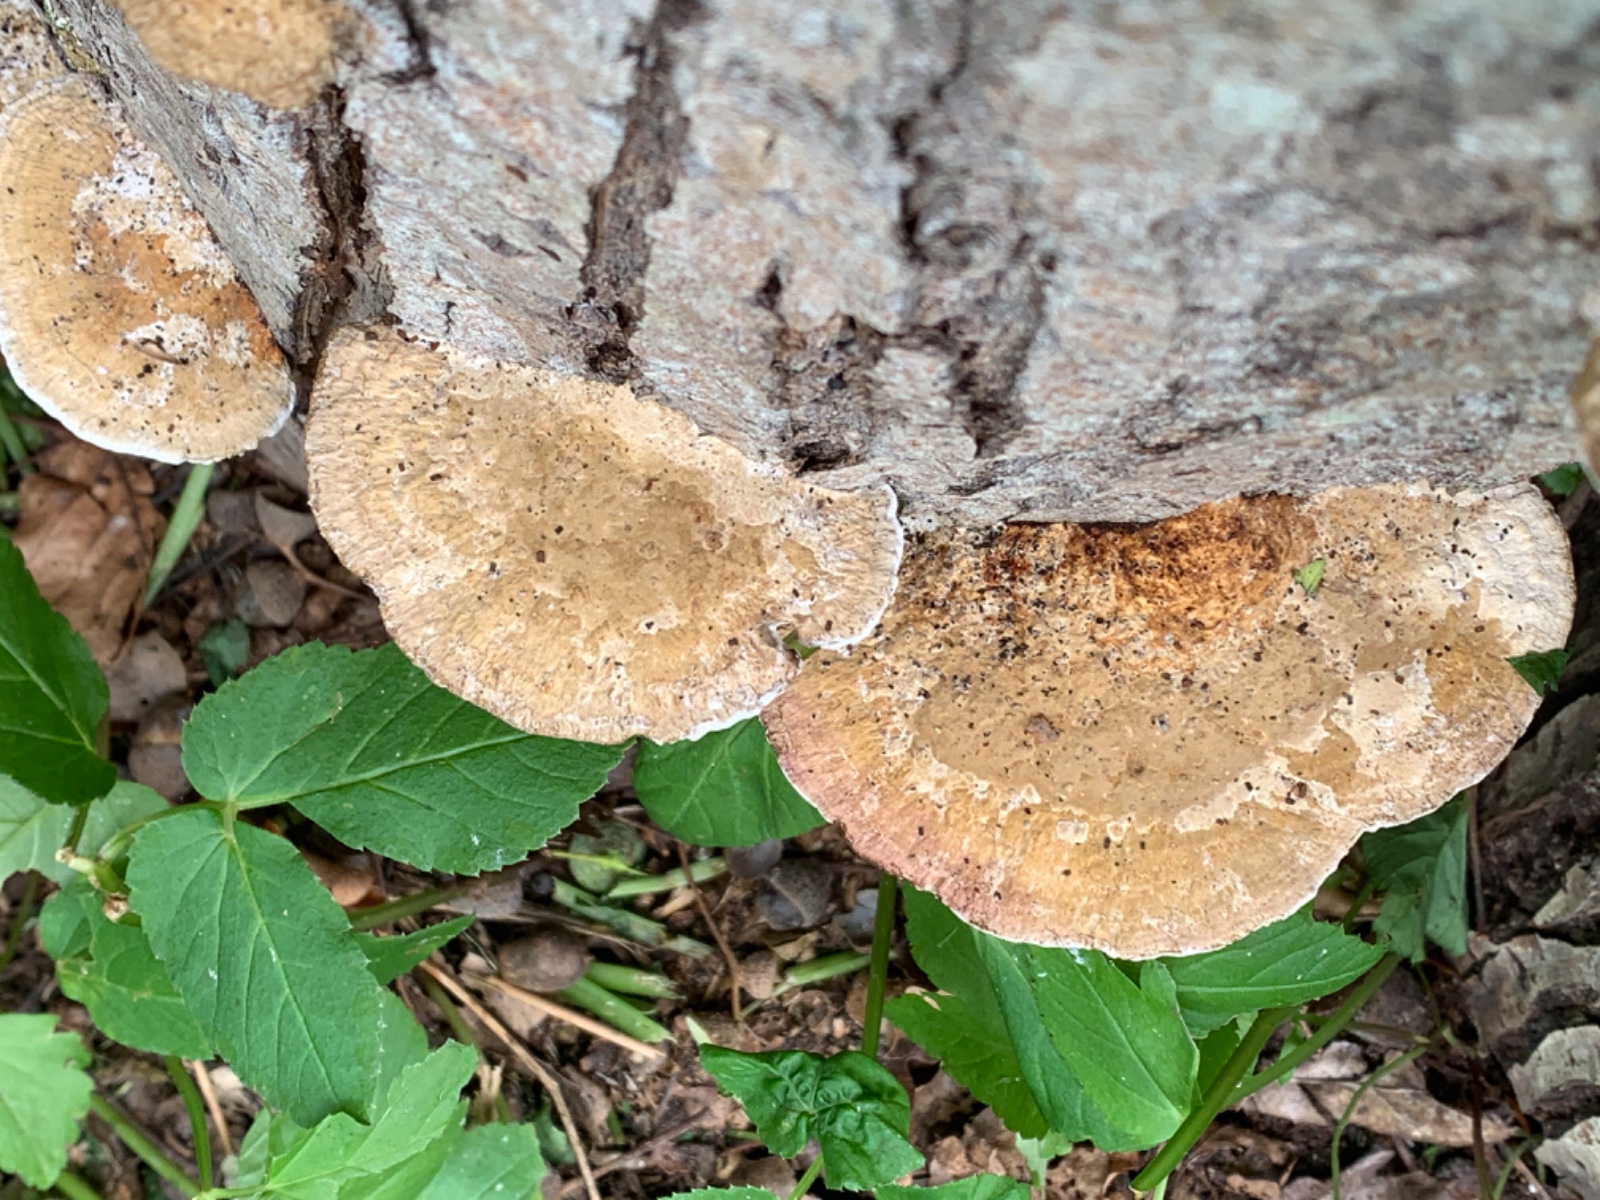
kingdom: Fungi
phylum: Basidiomycota
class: Agaricomycetes
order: Polyporales
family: Polyporaceae
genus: Daedaleopsis
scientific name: Daedaleopsis confragosa
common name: rødmende læderporesvamp
